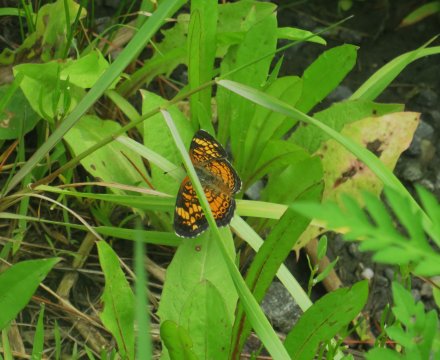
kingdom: Animalia
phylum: Arthropoda
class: Insecta
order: Lepidoptera
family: Nymphalidae
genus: Phyciodes
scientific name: Phyciodes tharos
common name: Pearl Crescent
